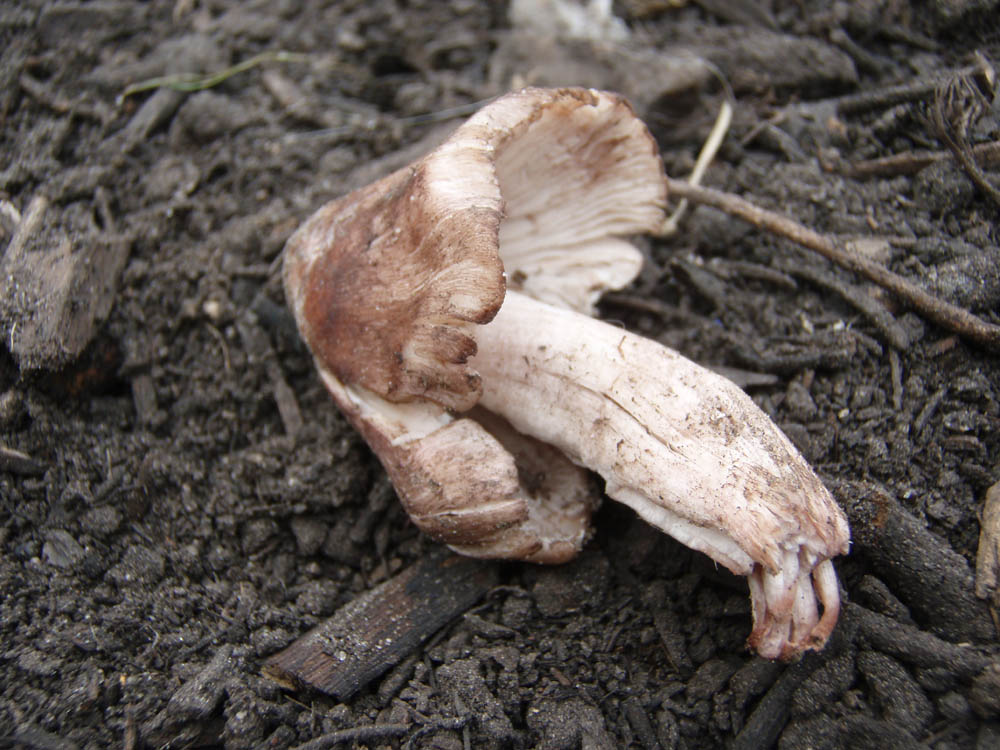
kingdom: Fungi
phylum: Basidiomycota
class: Agaricomycetes
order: Agaricales
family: Inocybaceae
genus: Inosperma
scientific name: Inosperma adaequatum
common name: vinrød trævlhat
